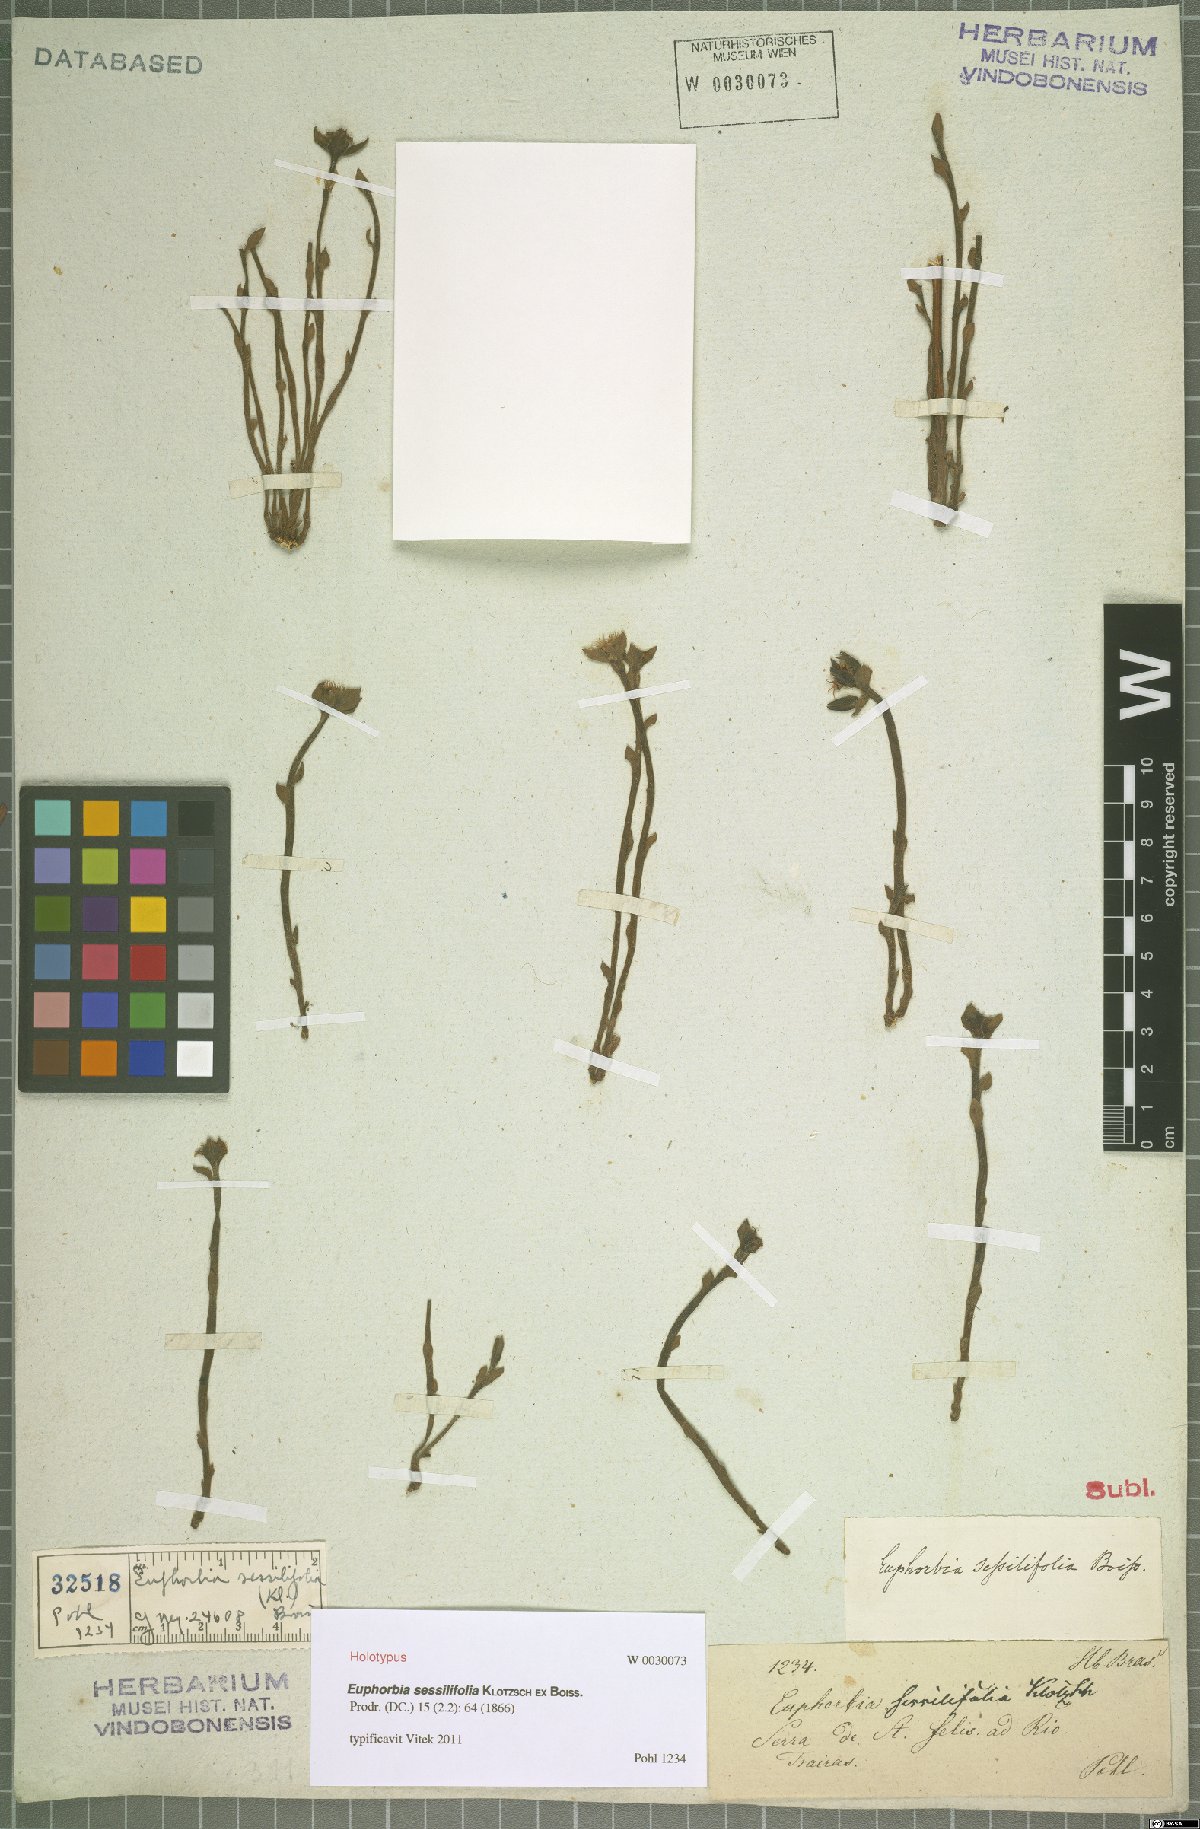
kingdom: Plantae
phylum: Tracheophyta
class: Magnoliopsida
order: Malpighiales
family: Euphorbiaceae
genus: Euphorbia
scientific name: Euphorbia sessilifolia
